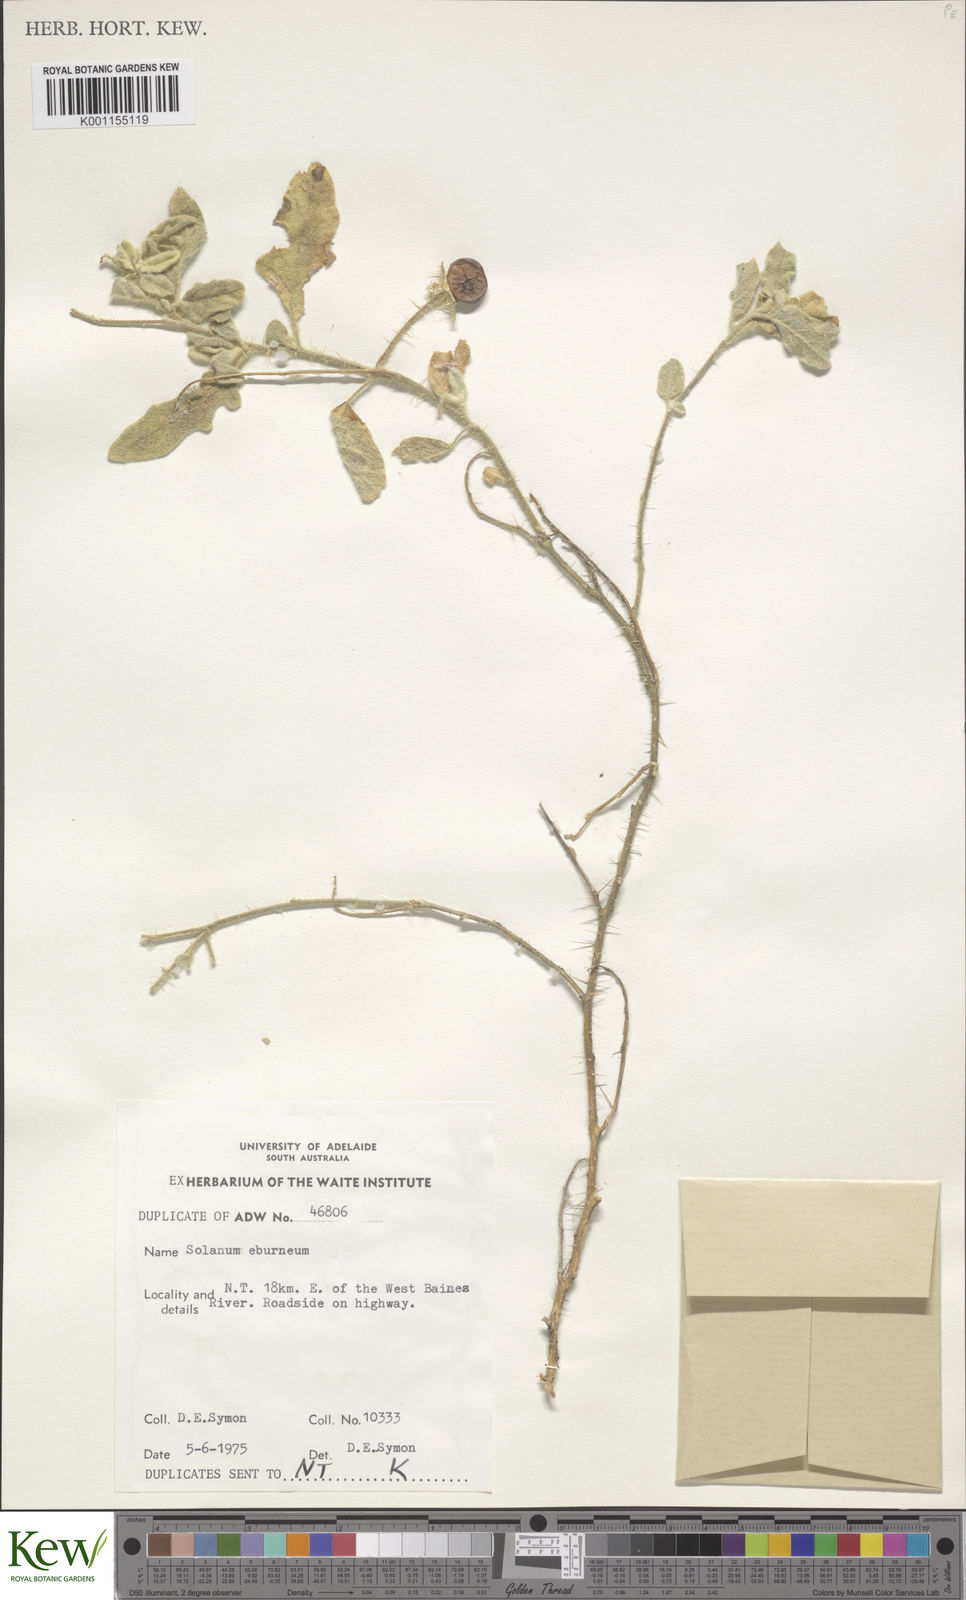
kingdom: Plantae
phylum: Tracheophyta
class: Magnoliopsida
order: Solanales
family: Solanaceae
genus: Solanum
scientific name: Solanum eburneum
